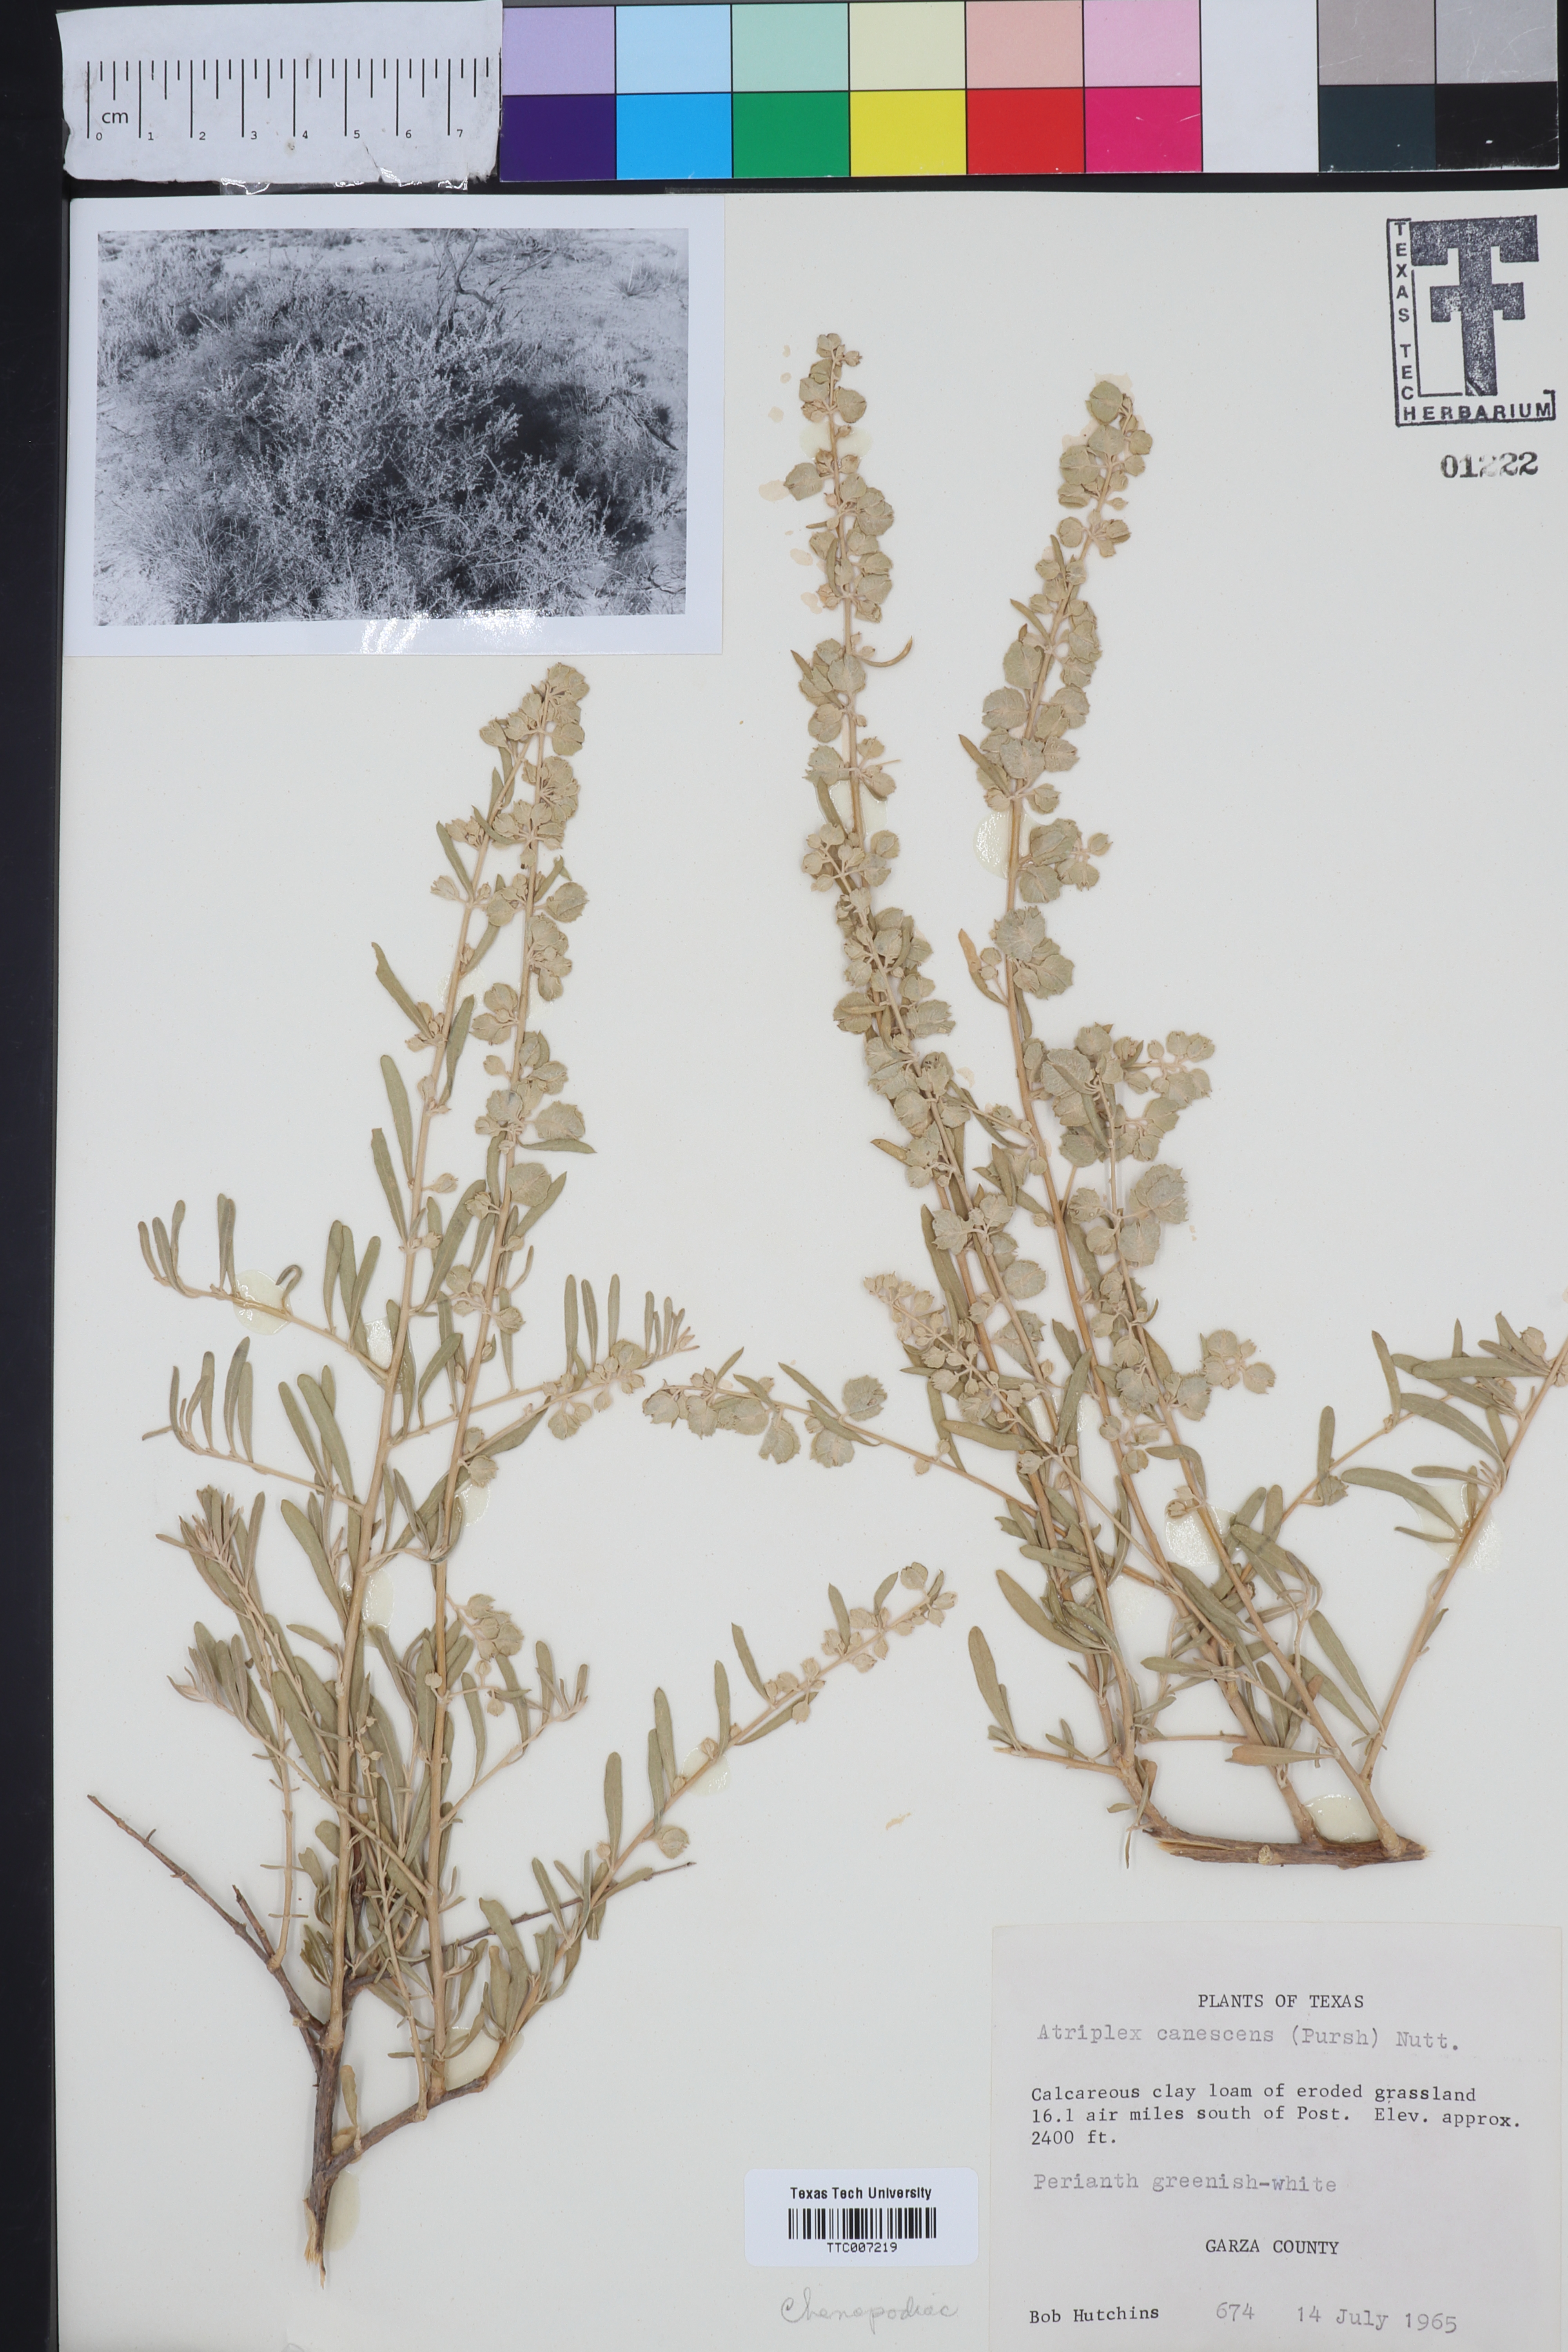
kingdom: Plantae
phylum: Tracheophyta
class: Magnoliopsida
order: Caryophyllales
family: Amaranthaceae
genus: Atriplex
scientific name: Atriplex canescens
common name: Four-wing saltbush
